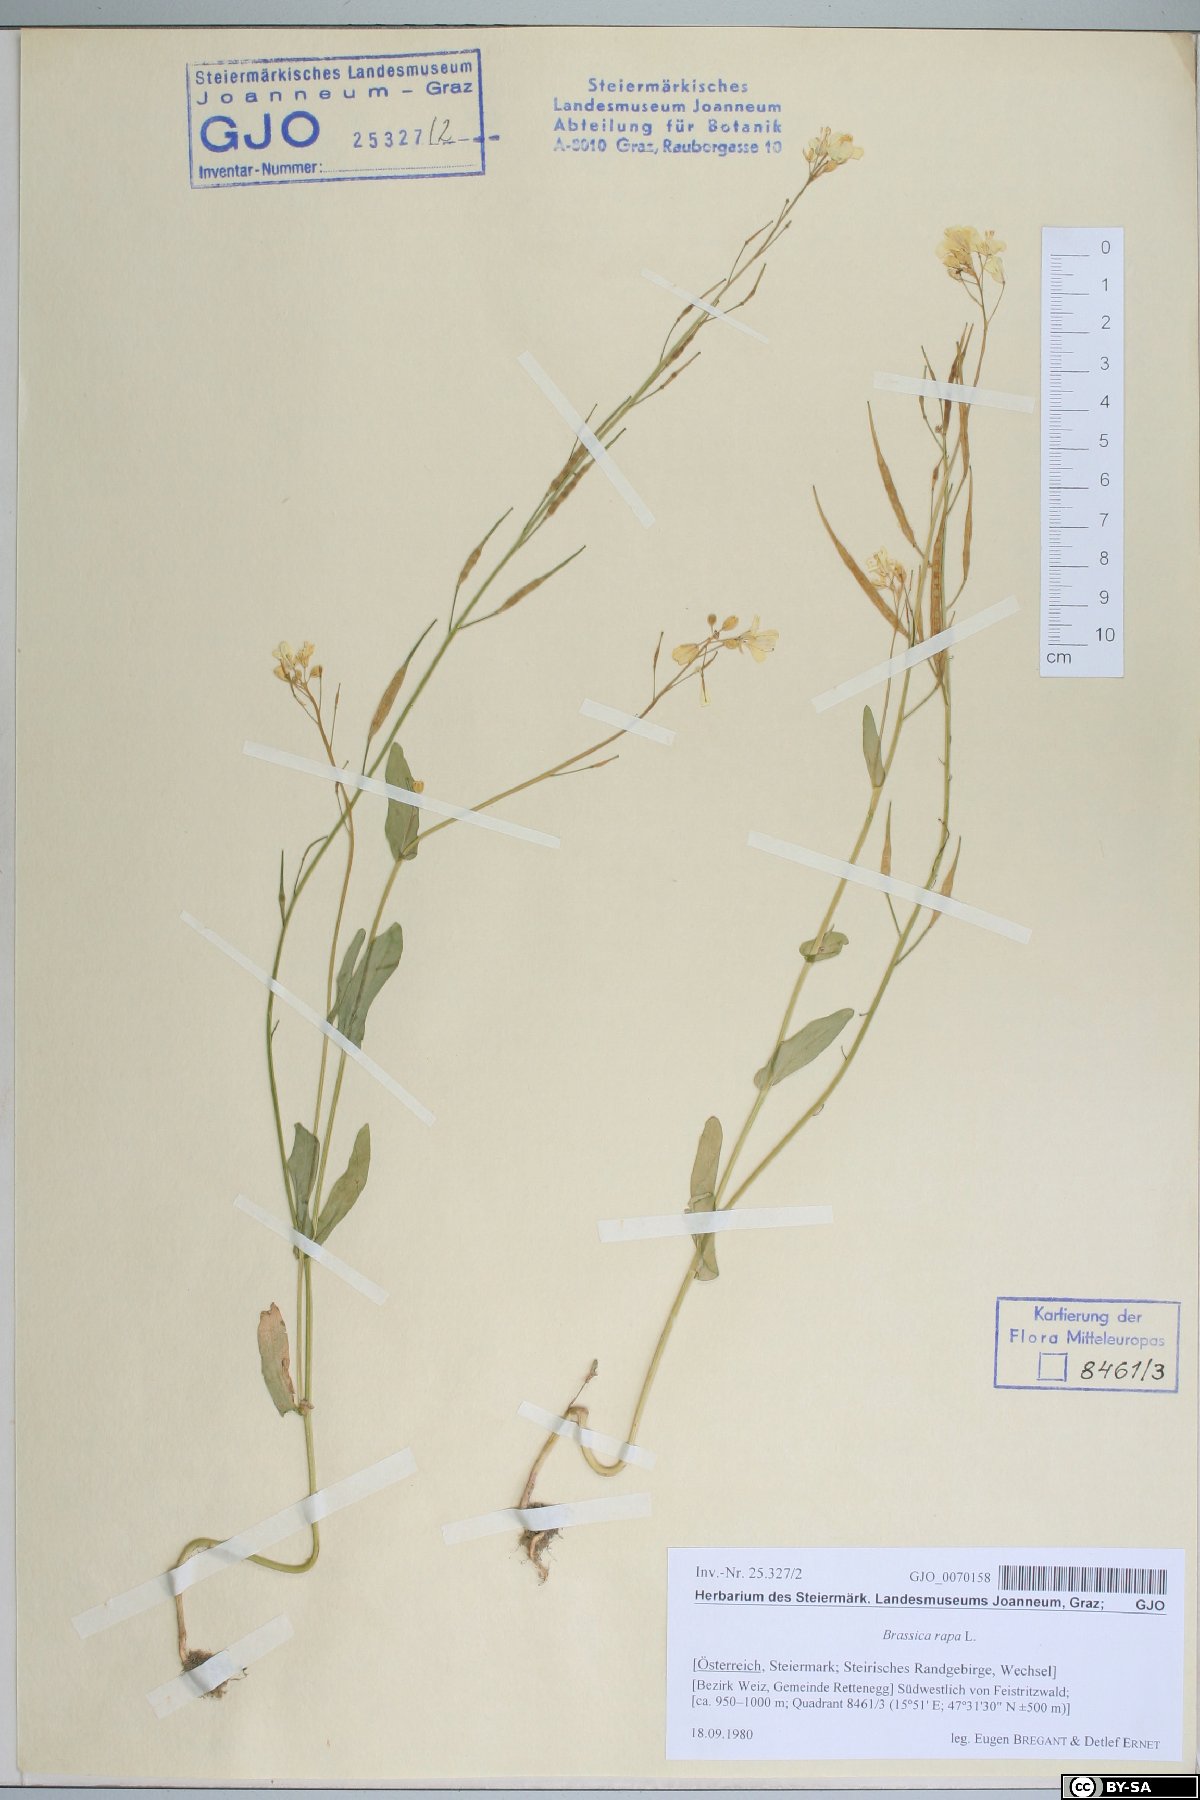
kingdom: Plantae
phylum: Tracheophyta
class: Magnoliopsida
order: Brassicales
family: Brassicaceae
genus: Brassica
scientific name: Brassica rapa
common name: Field mustard
